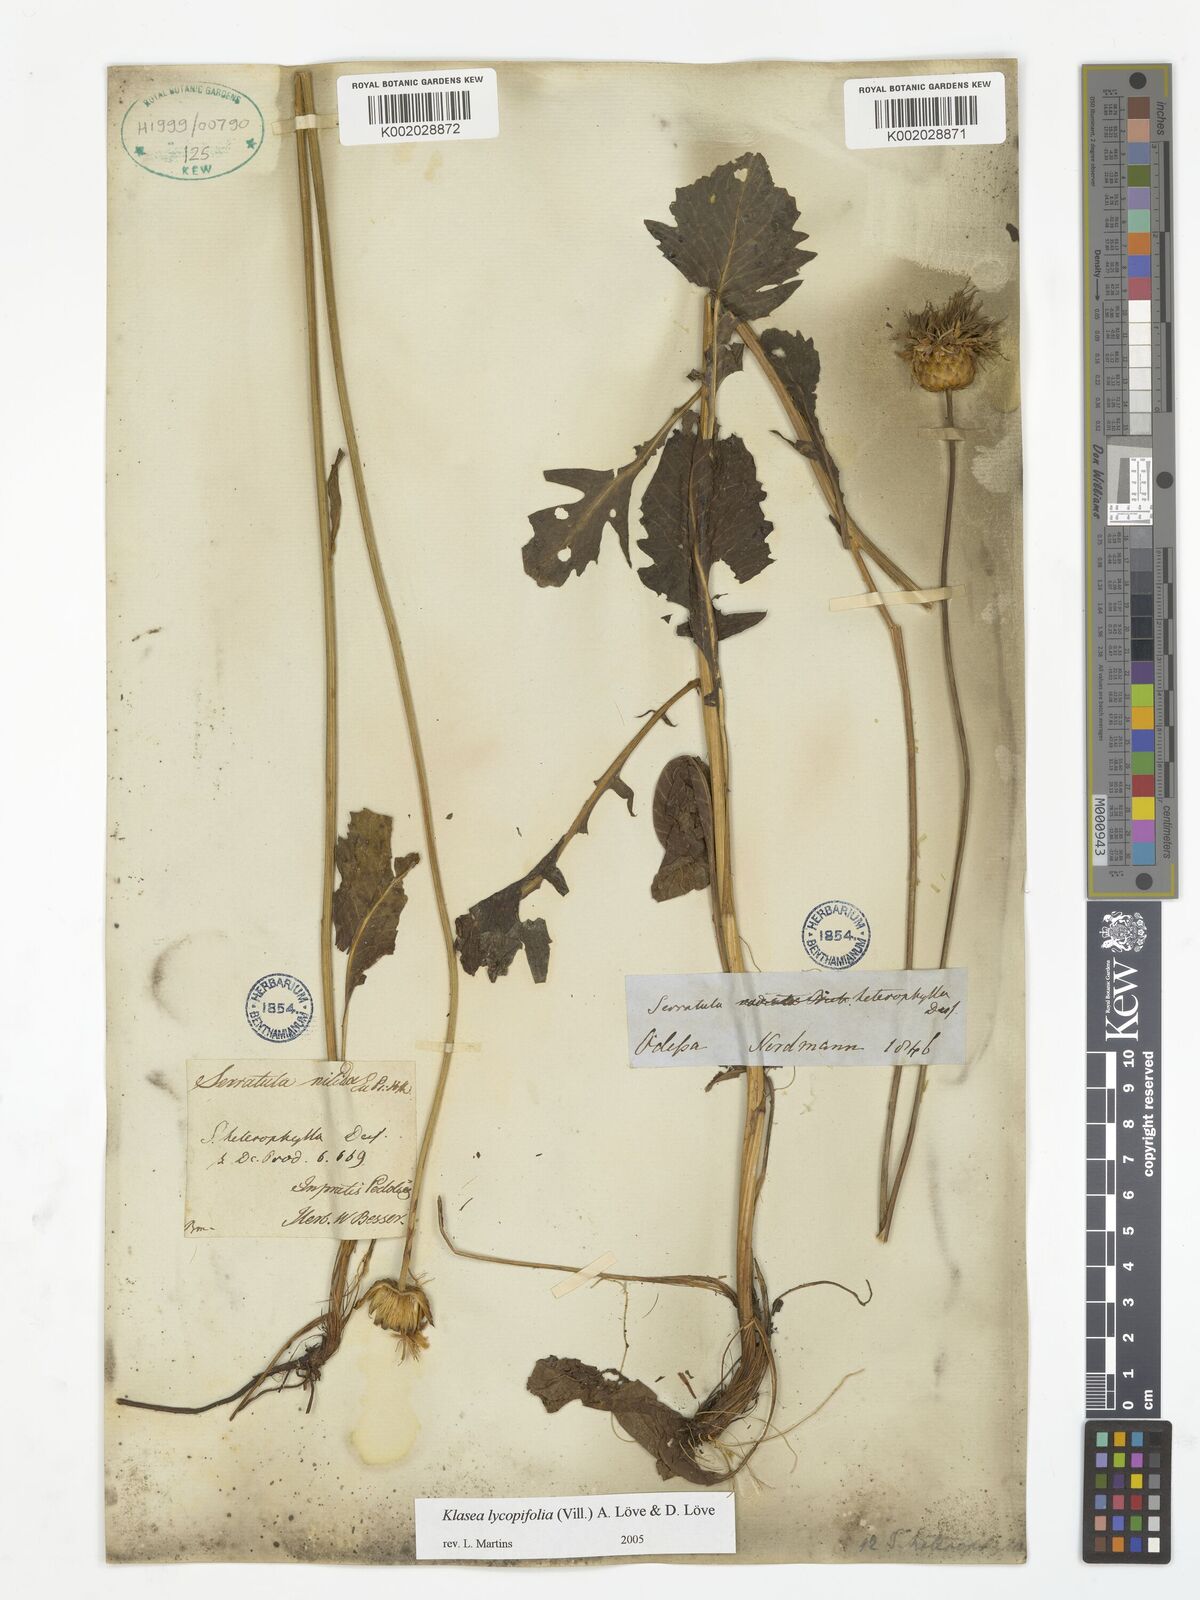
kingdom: Plantae
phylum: Tracheophyta
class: Magnoliopsida
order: Asterales
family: Asteraceae
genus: Callicephalus
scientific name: Callicephalus nitens
